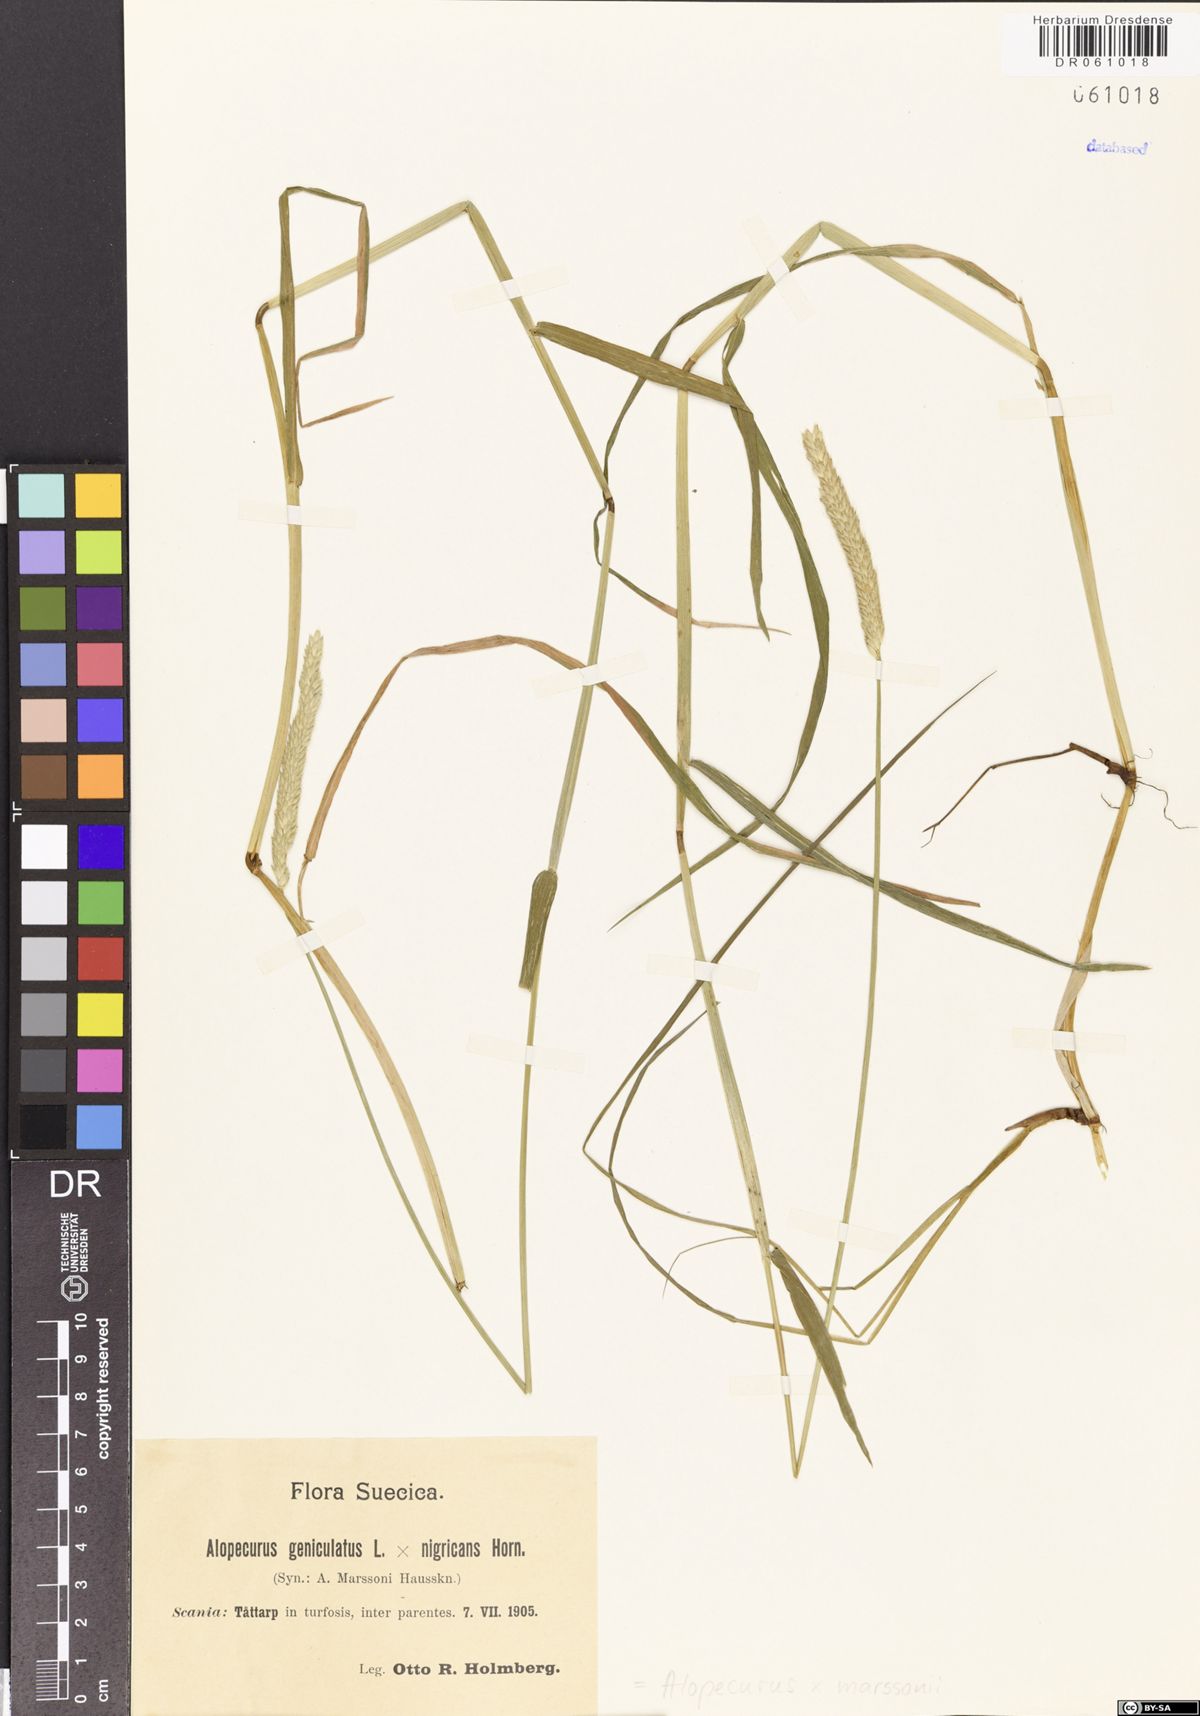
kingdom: Plantae
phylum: Tracheophyta
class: Liliopsida
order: Poales
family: Poaceae
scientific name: Poaceae
